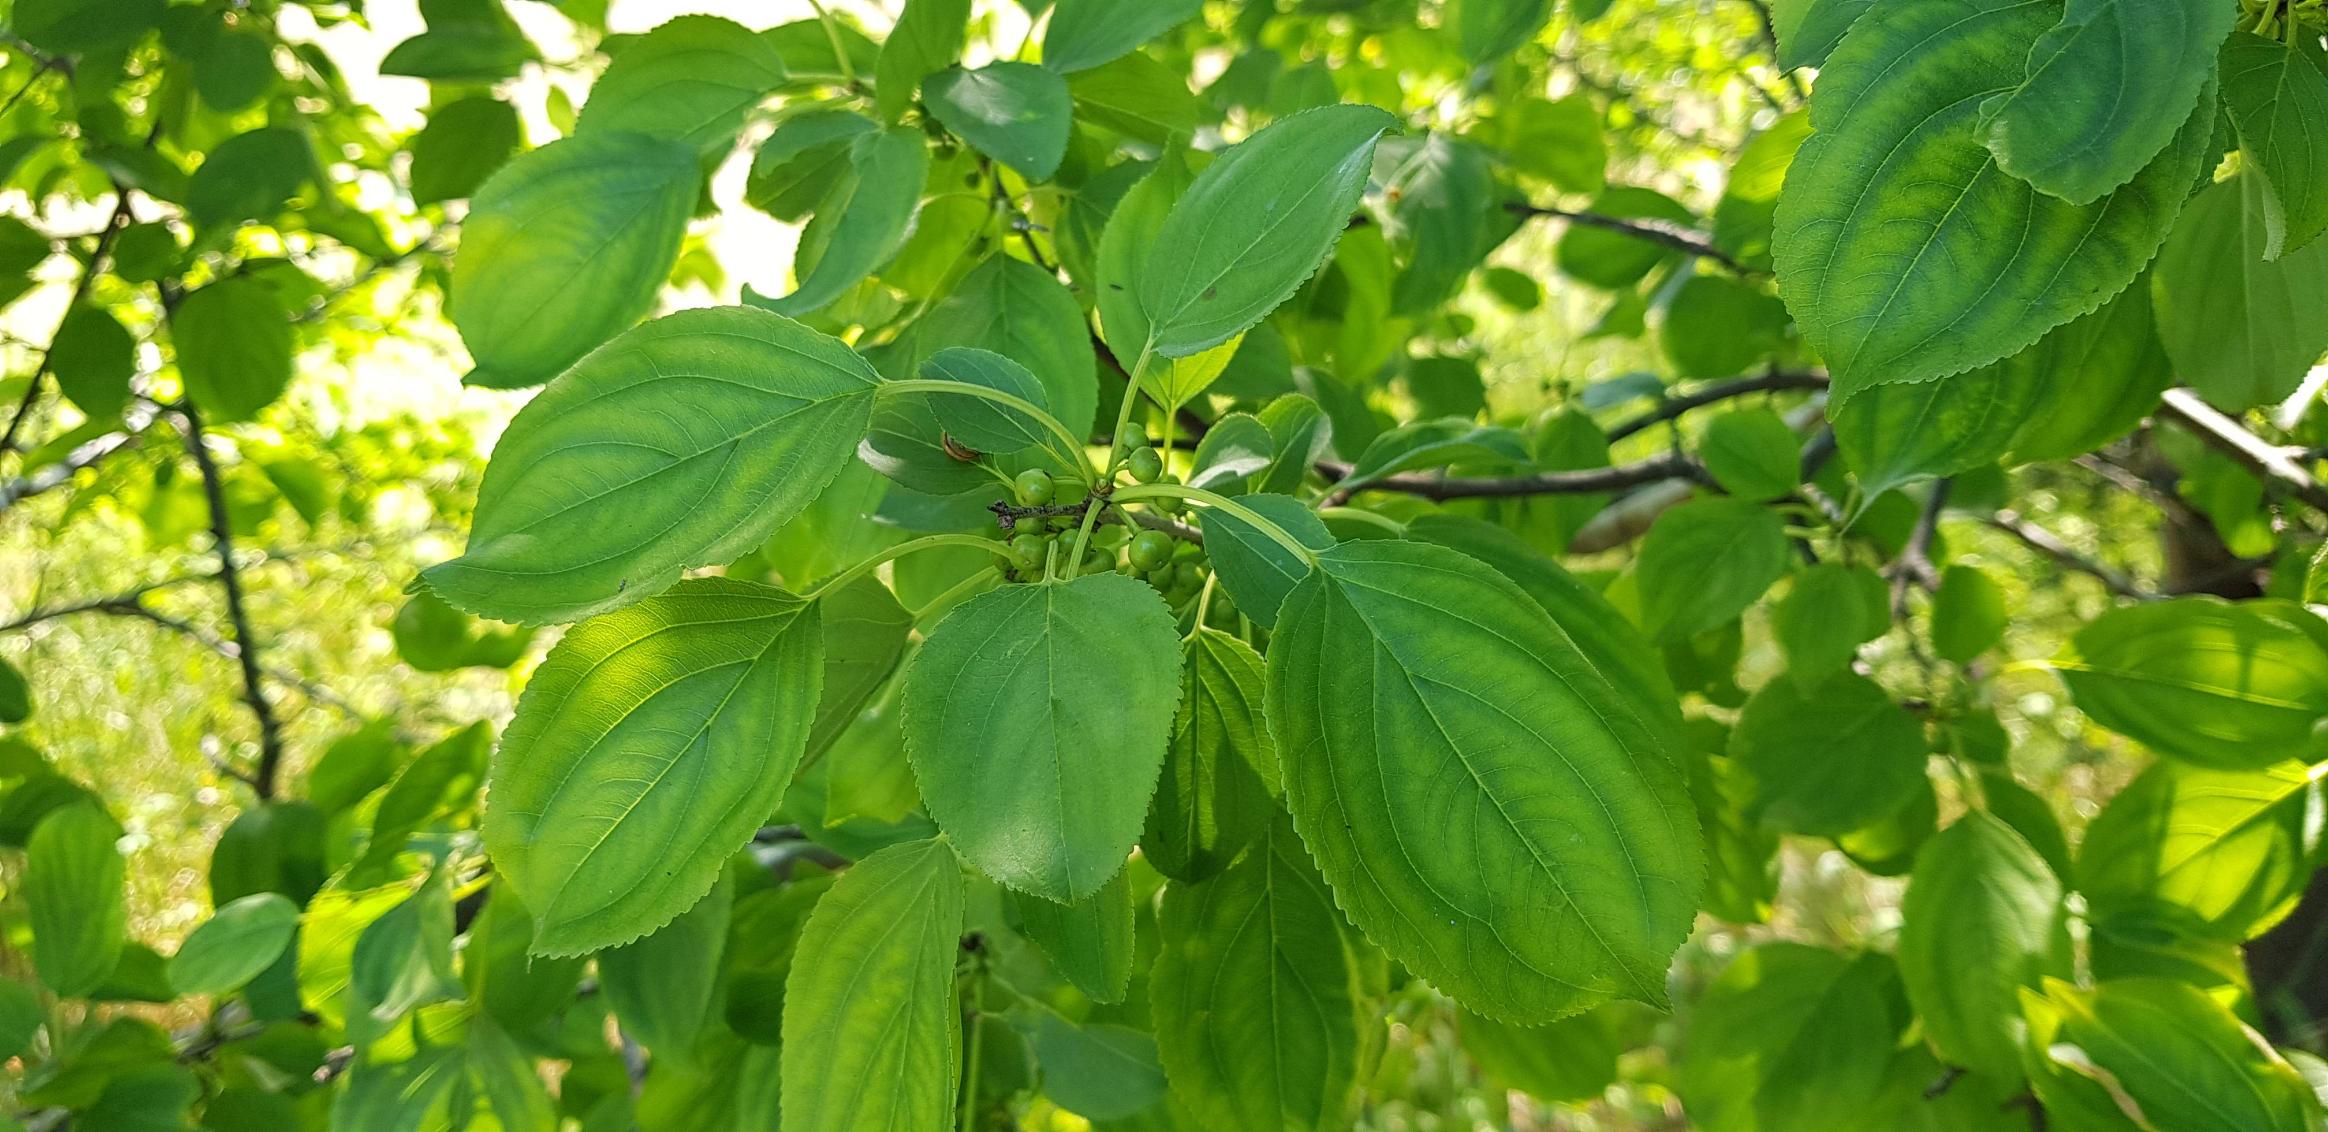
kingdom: Plantae
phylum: Tracheophyta
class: Magnoliopsida
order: Rosales
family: Rhamnaceae
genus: Rhamnus
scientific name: Rhamnus cathartica
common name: Vrietorn
